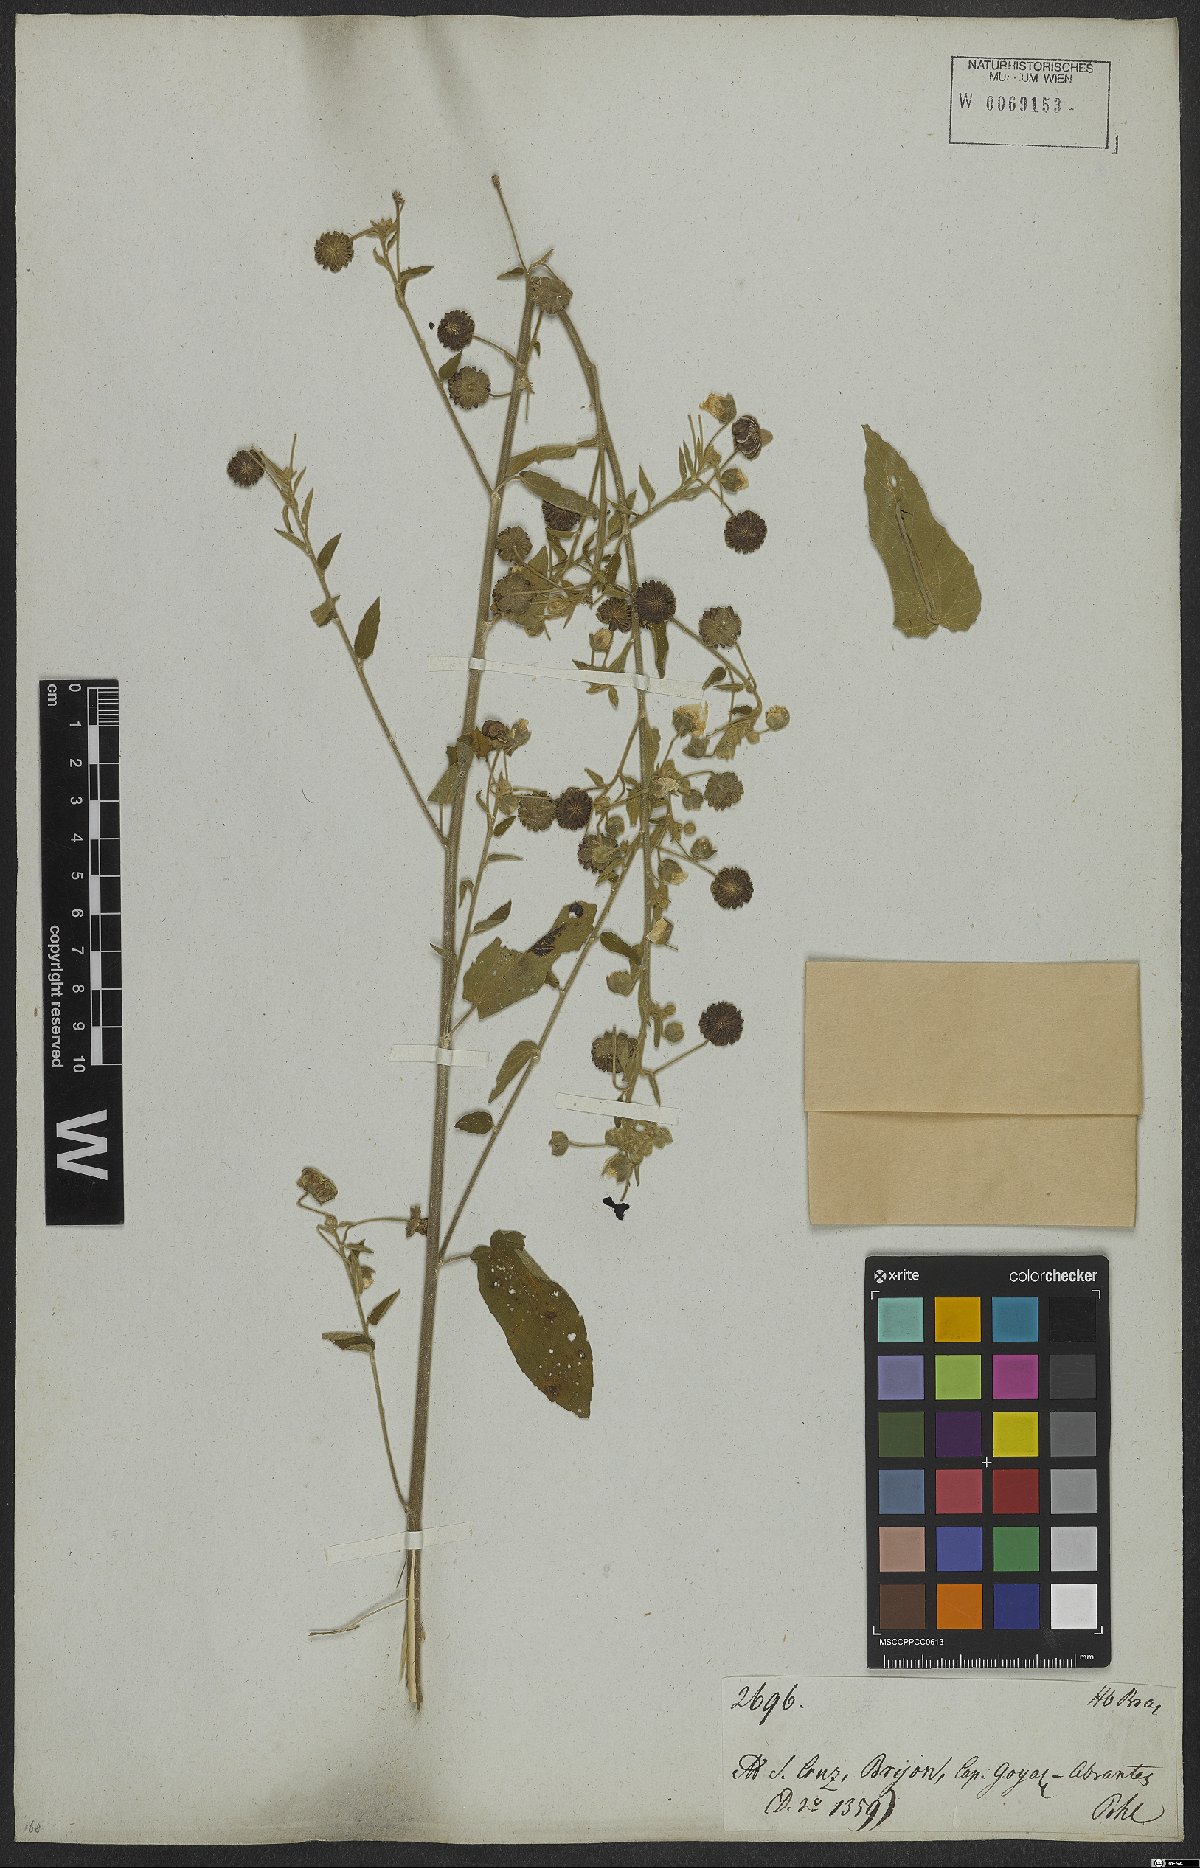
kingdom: Plantae
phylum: Tracheophyta
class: Magnoliopsida
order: Malvales
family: Malvaceae
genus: Gaya
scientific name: Gaya guerkeana
